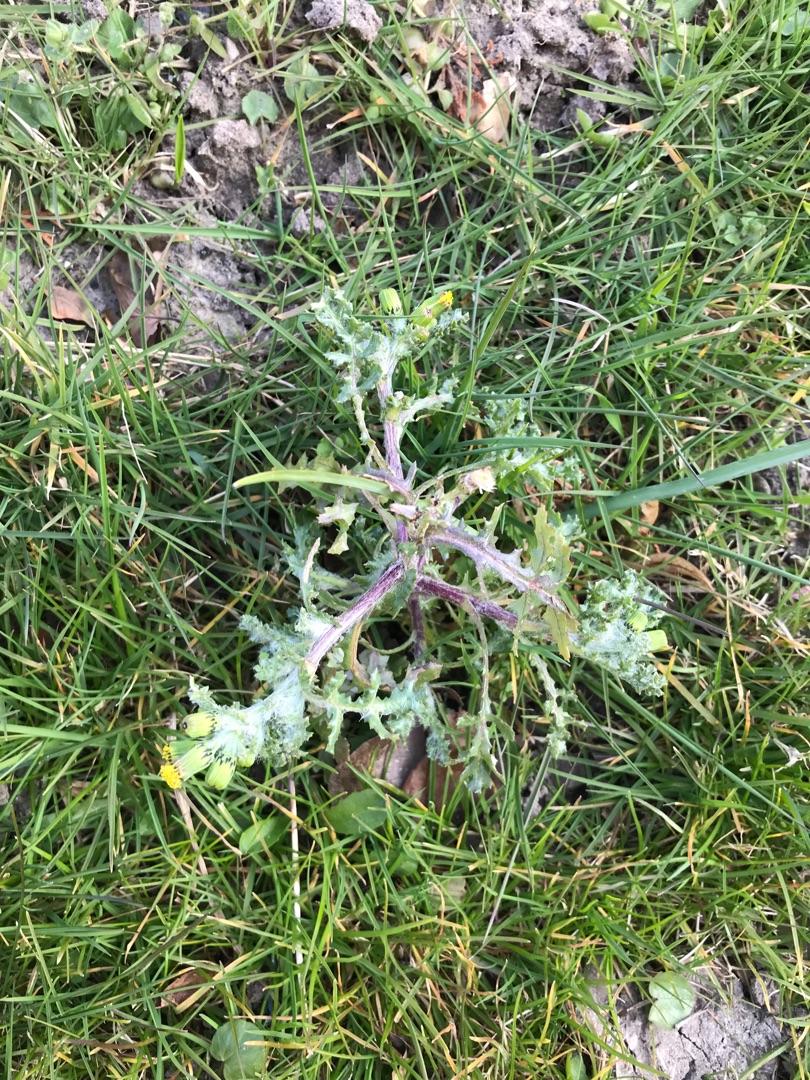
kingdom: Plantae
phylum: Tracheophyta
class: Magnoliopsida
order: Asterales
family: Asteraceae
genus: Senecio
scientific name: Senecio vulgaris
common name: Almindelig brandbæger
